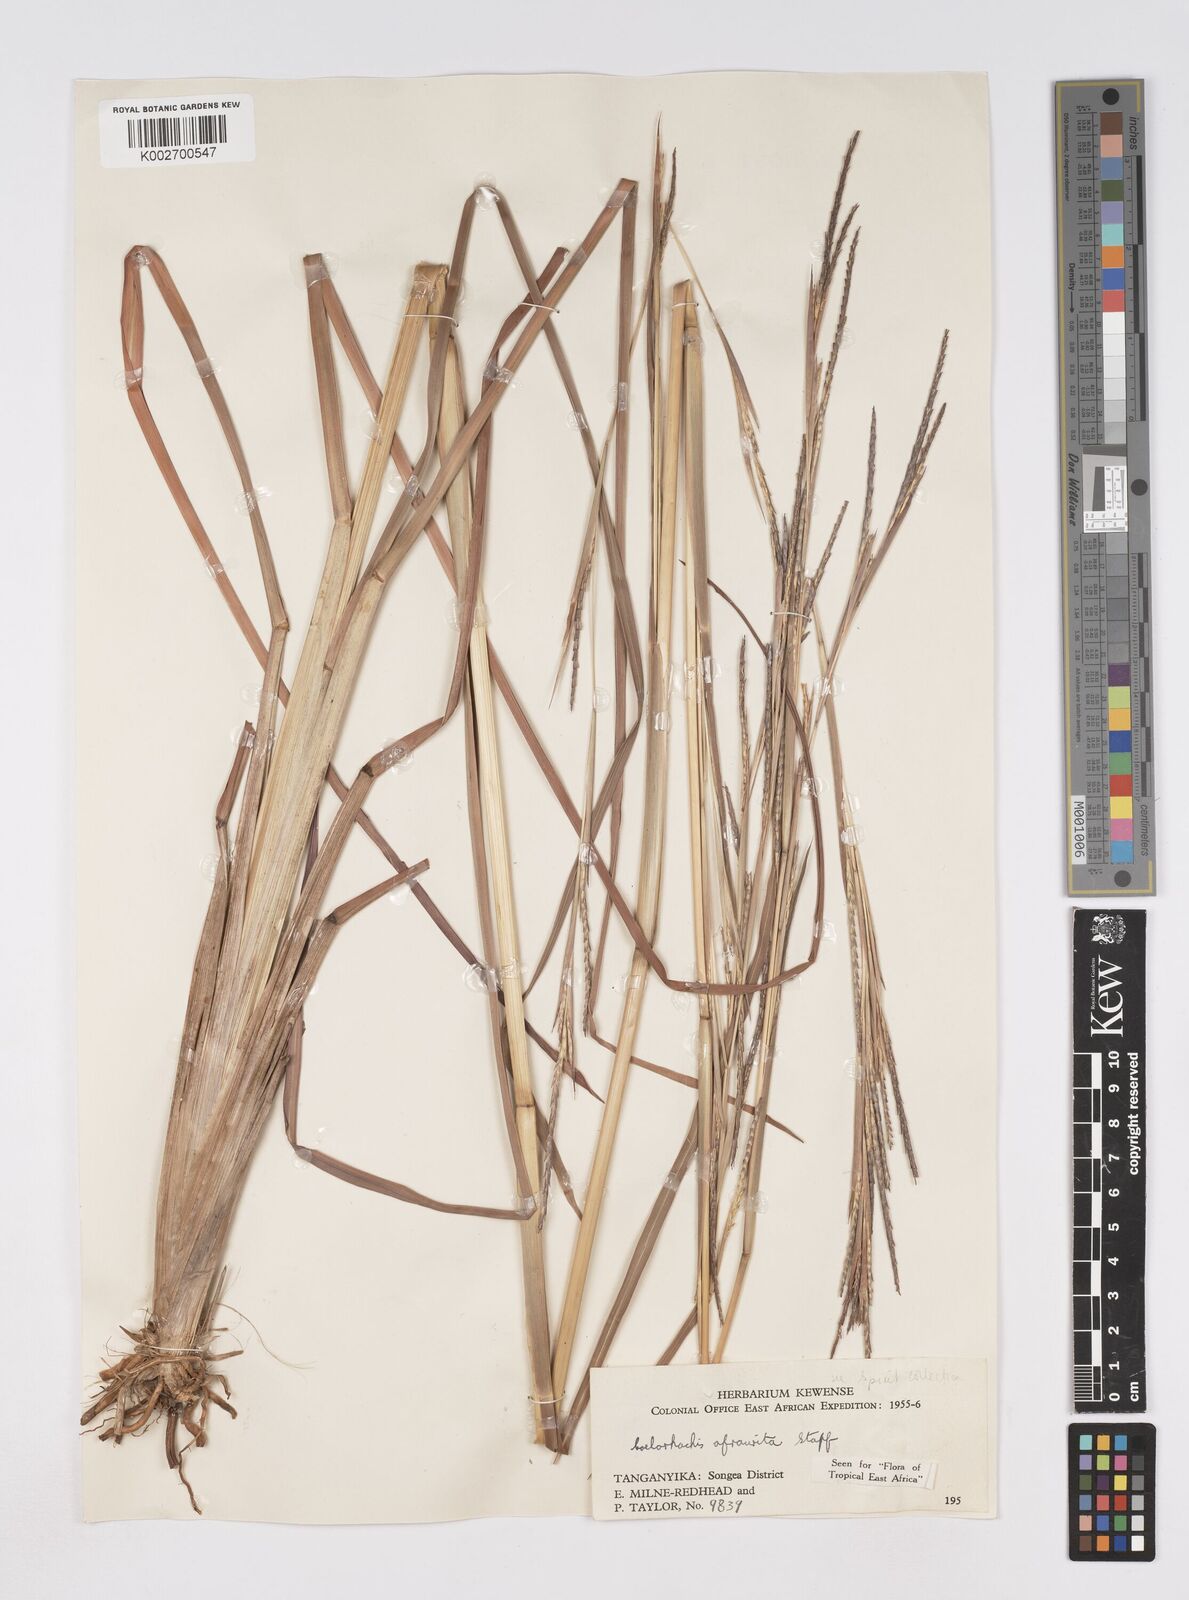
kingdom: Plantae
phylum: Tracheophyta
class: Liliopsida
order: Poales
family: Poaceae
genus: Rottboellia
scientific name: Rottboellia afraurita
